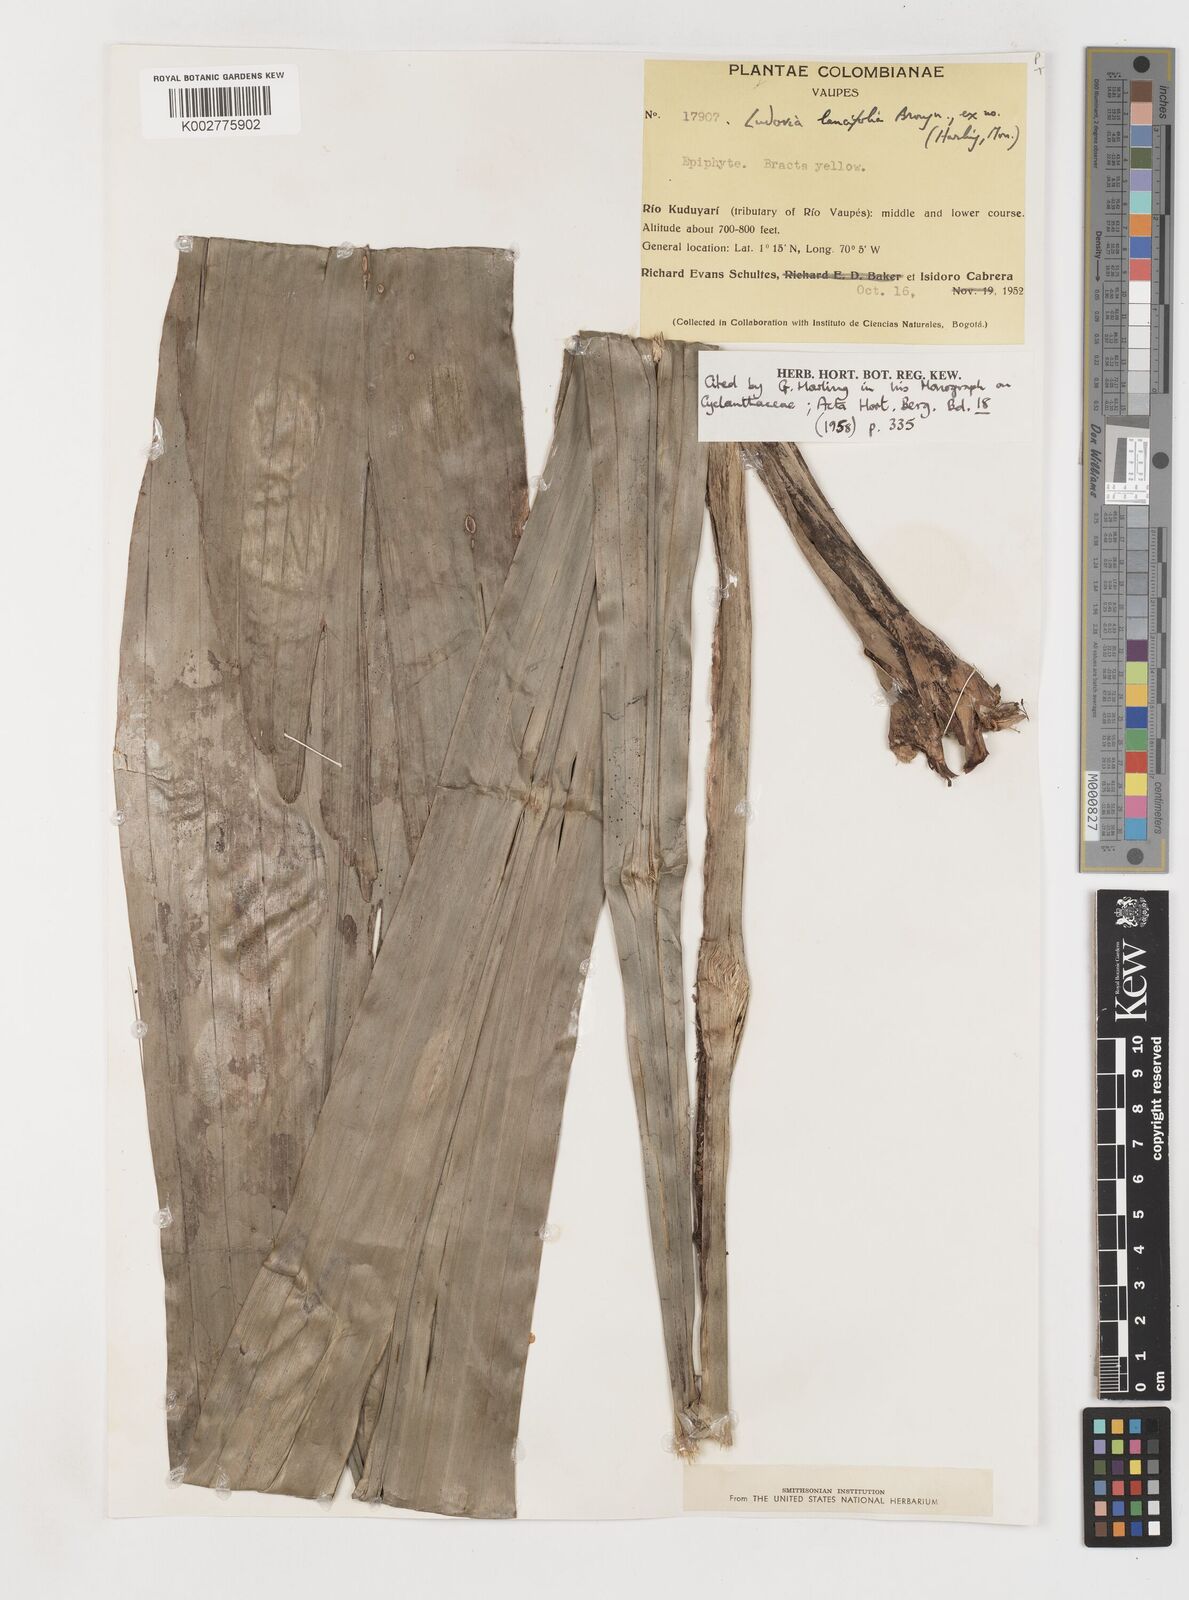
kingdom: Plantae
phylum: Tracheophyta
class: Liliopsida
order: Pandanales
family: Cyclanthaceae
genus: Ludovia
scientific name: Ludovia lancifolia
